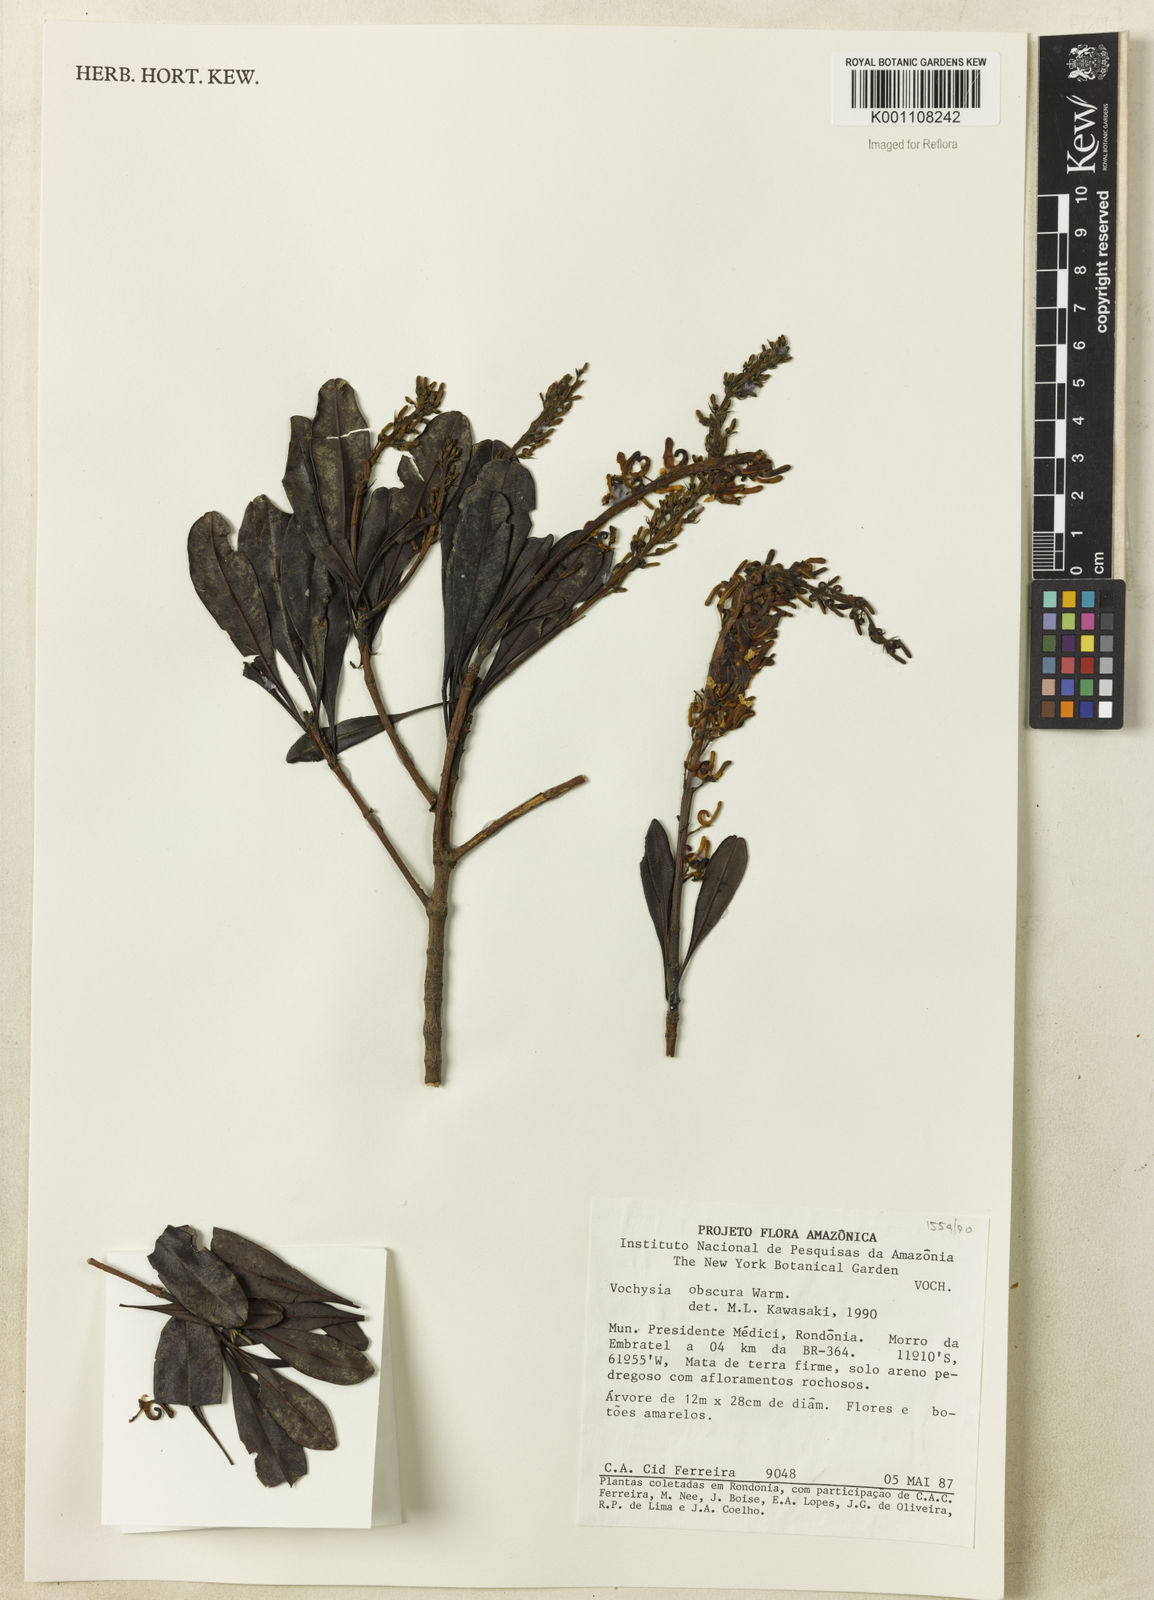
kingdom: Plantae
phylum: Tracheophyta
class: Magnoliopsida
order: Myrtales
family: Vochysiaceae
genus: Vochysia
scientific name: Vochysia obscura
